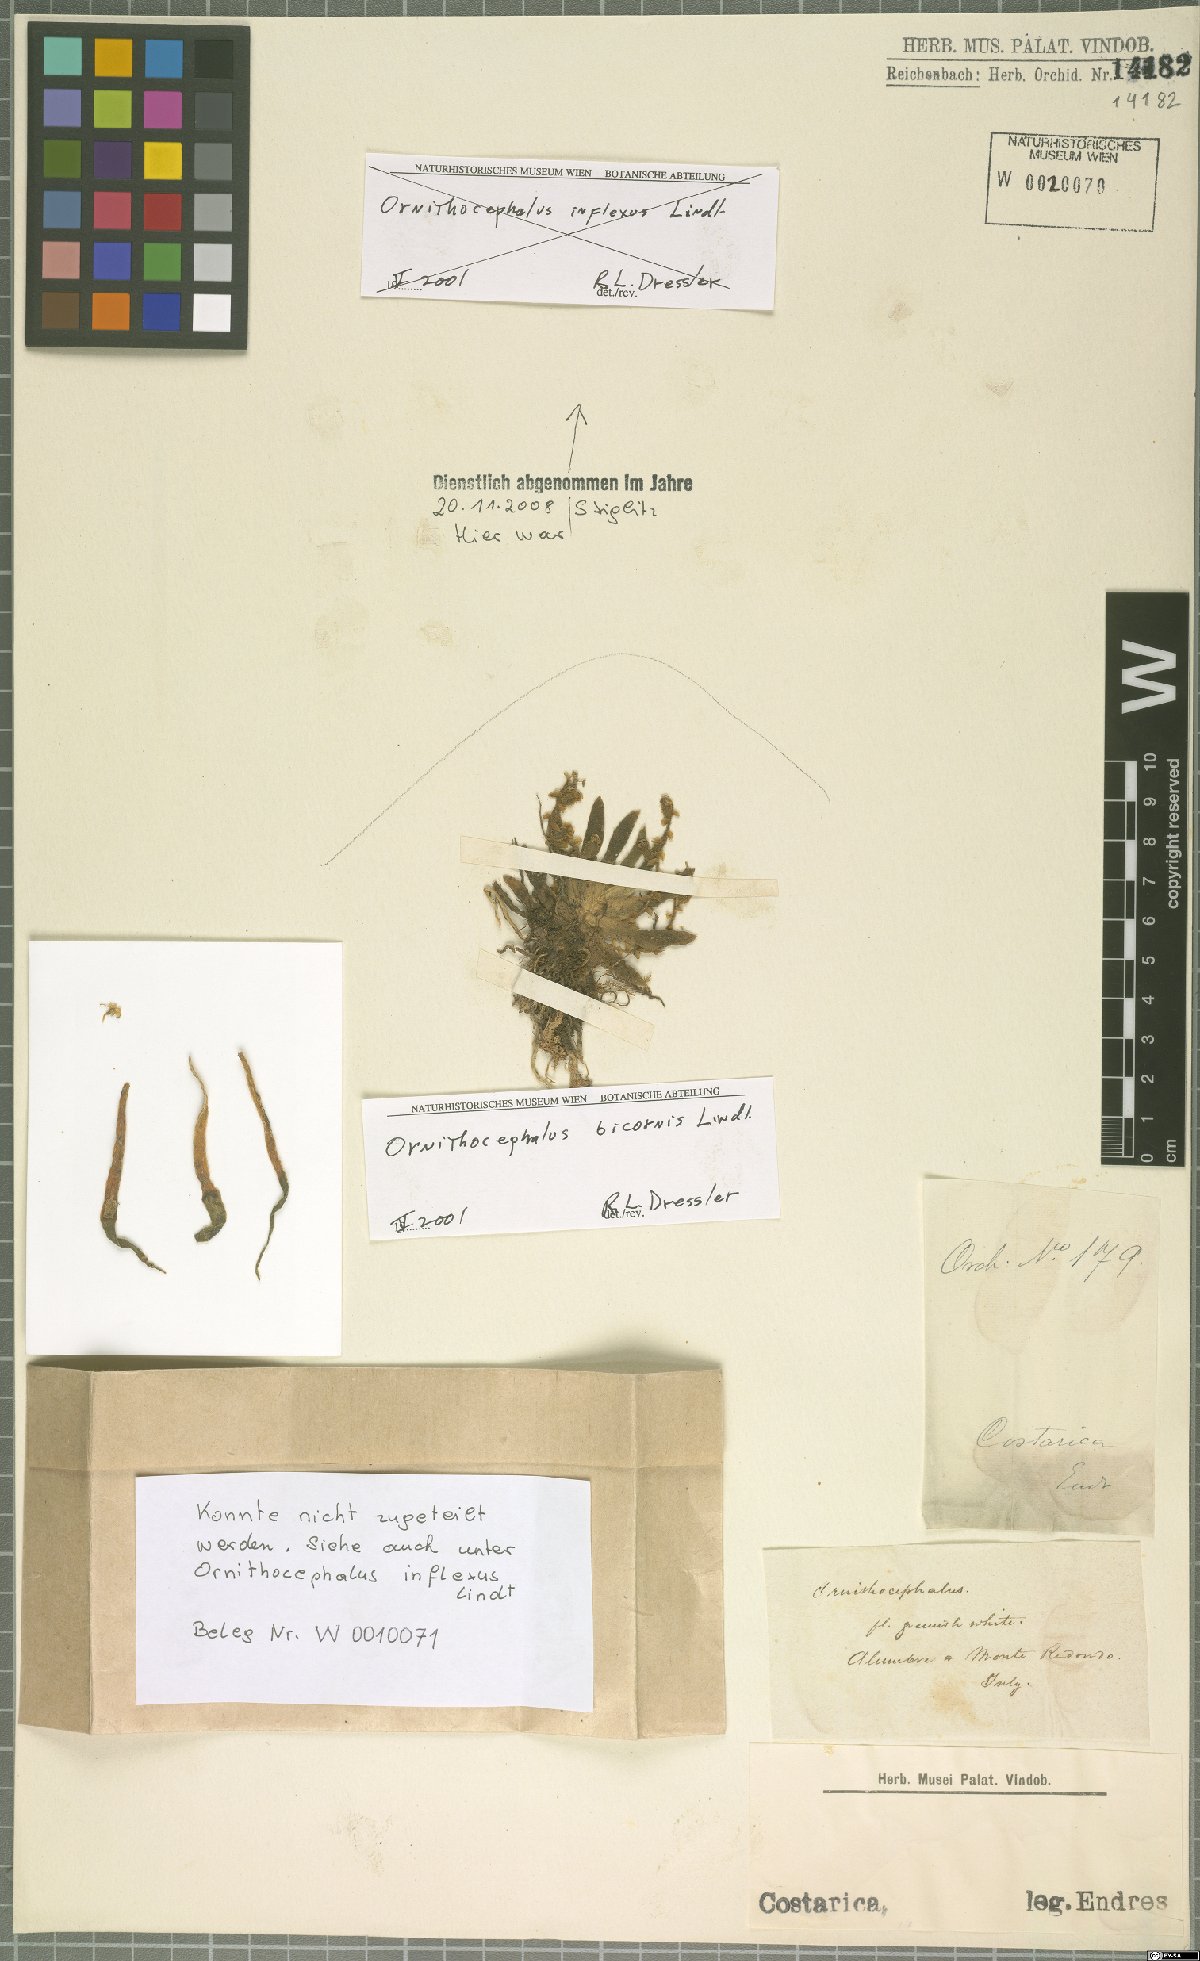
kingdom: Plantae
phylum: Tracheophyta
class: Liliopsida
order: Asparagales
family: Orchidaceae
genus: Ornithocephalus
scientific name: Ornithocephalus bicornis
